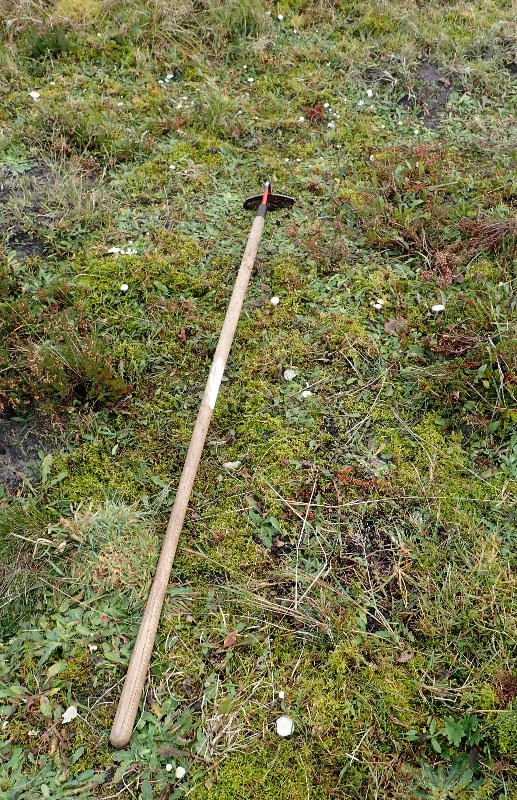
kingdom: Fungi
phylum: Basidiomycota
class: Agaricomycetes
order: Agaricales
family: Hygrophoraceae
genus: Cuphophyllus
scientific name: Cuphophyllus virgineus
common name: snehvid vokshat
